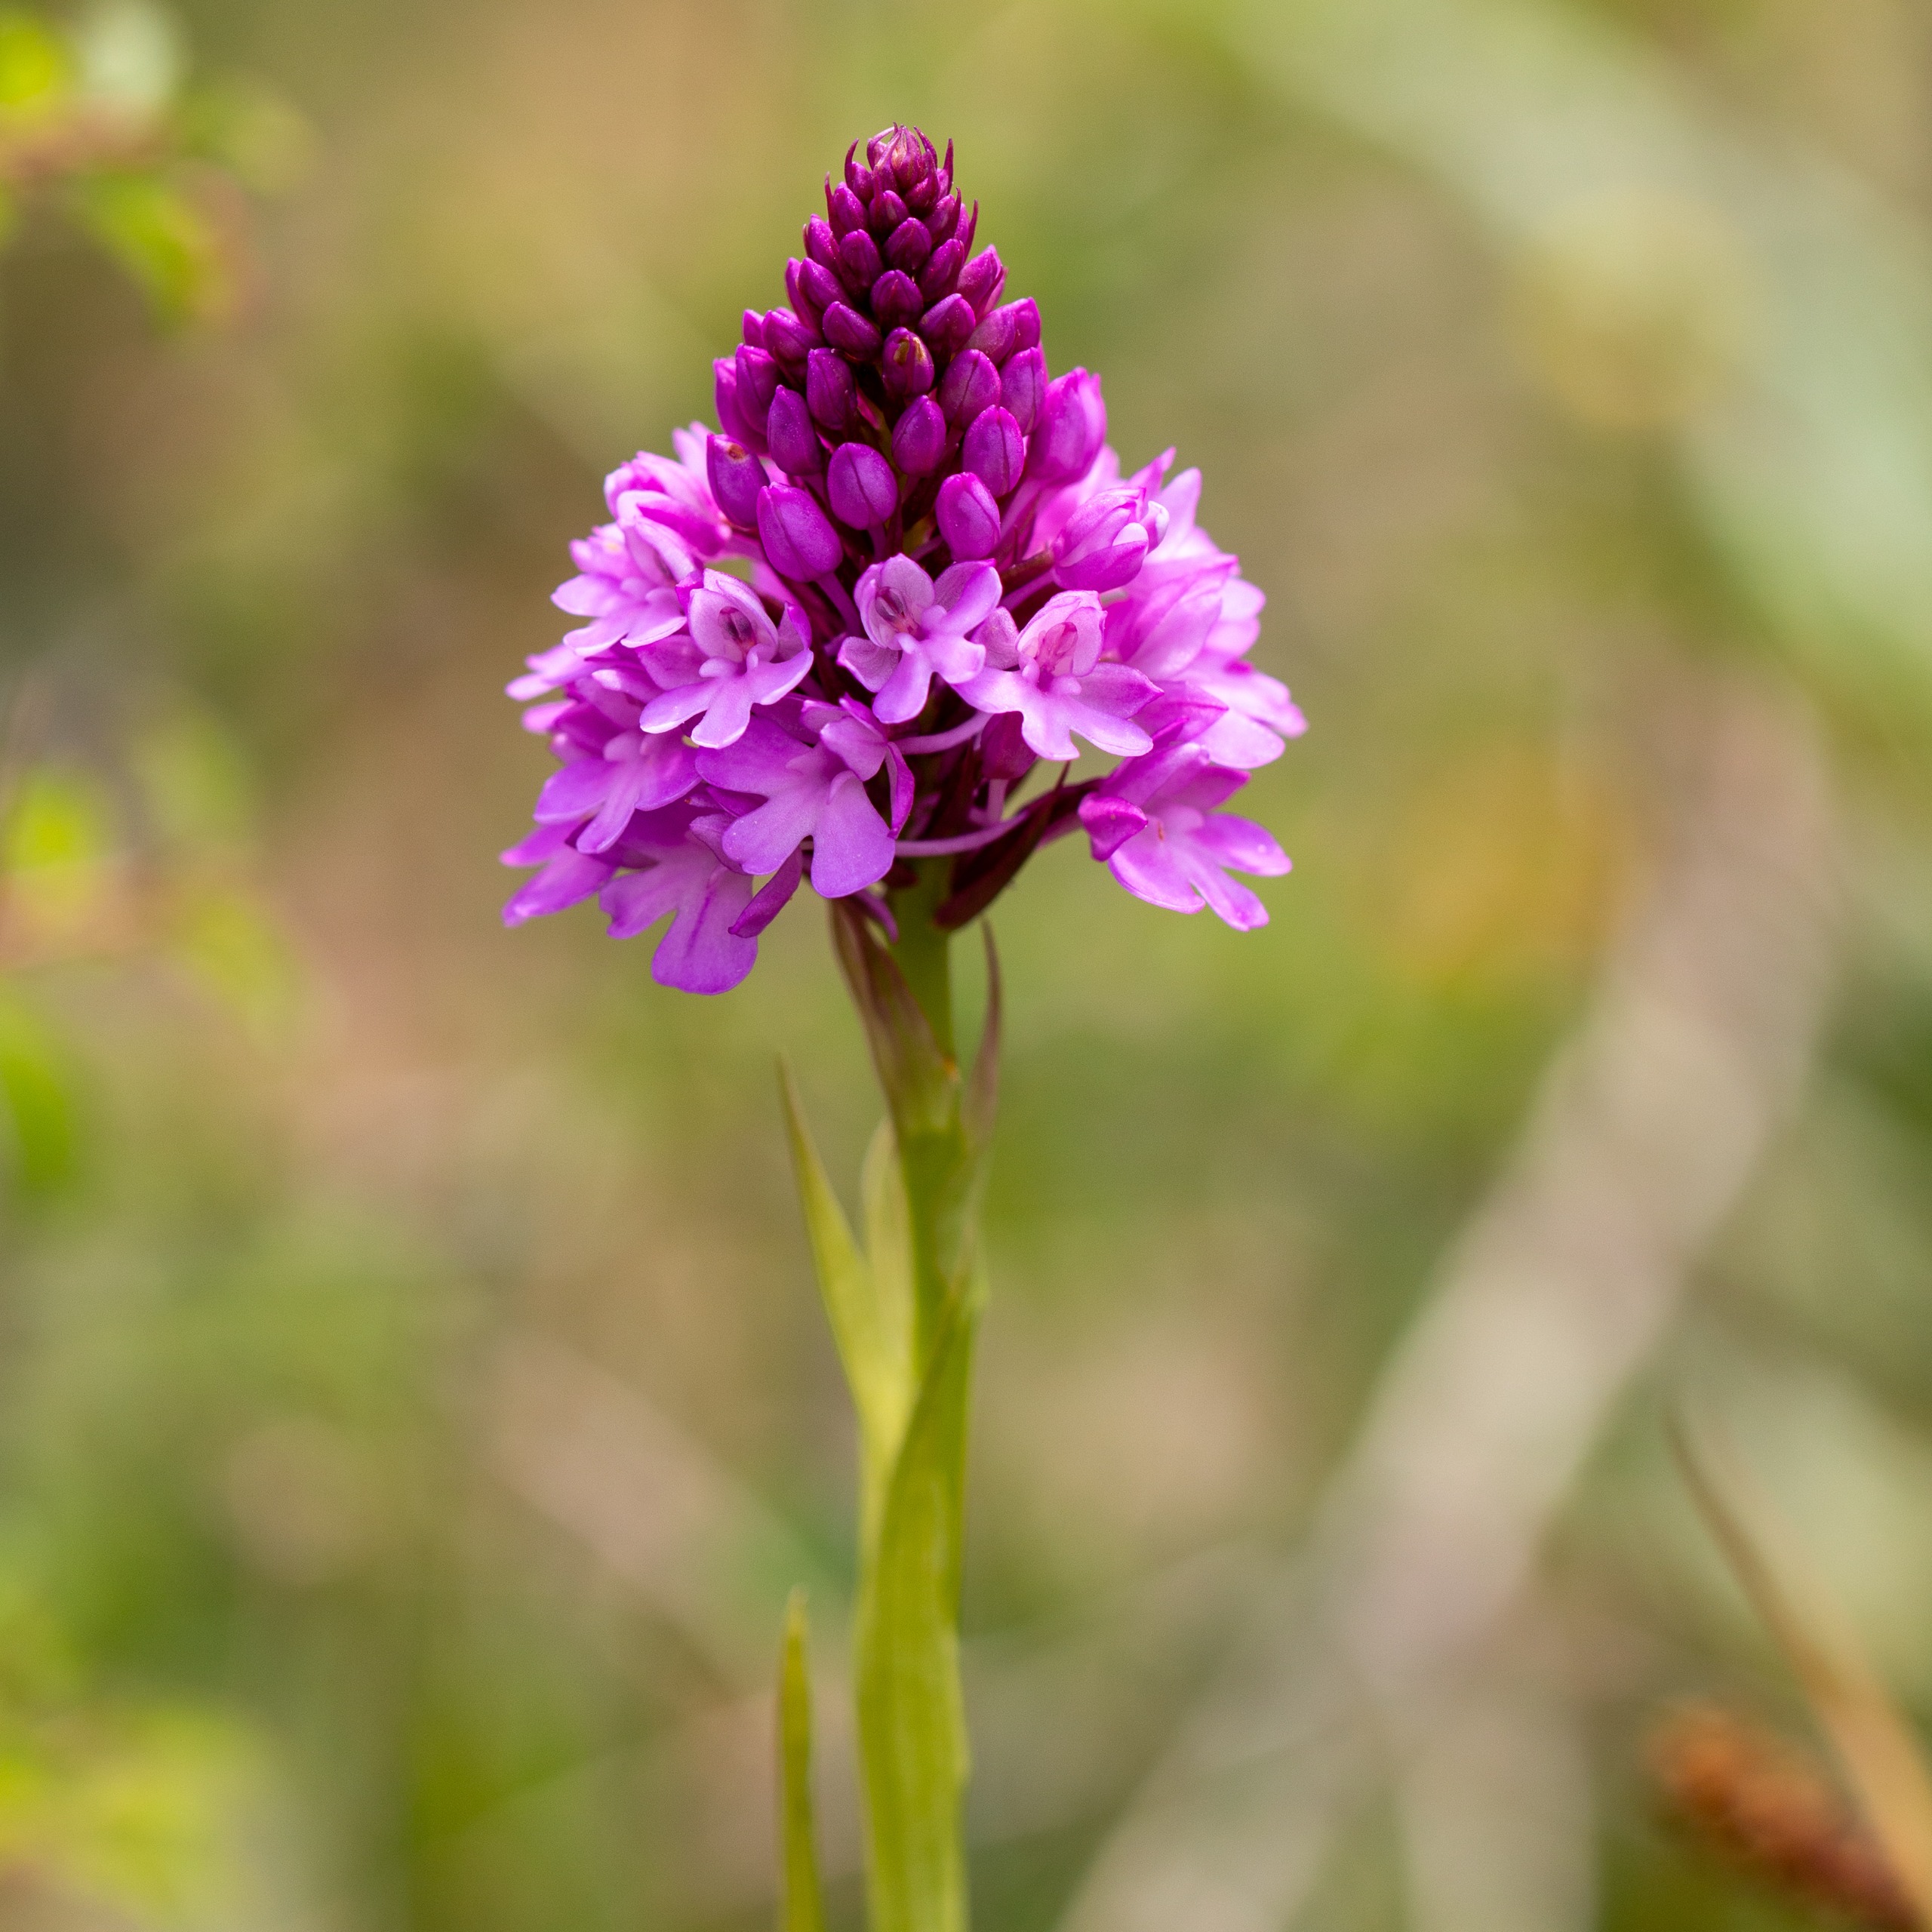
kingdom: Plantae
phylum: Tracheophyta
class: Liliopsida
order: Asparagales
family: Orchidaceae
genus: Anacamptis
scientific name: Anacamptis pyramidalis
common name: Horndrager
